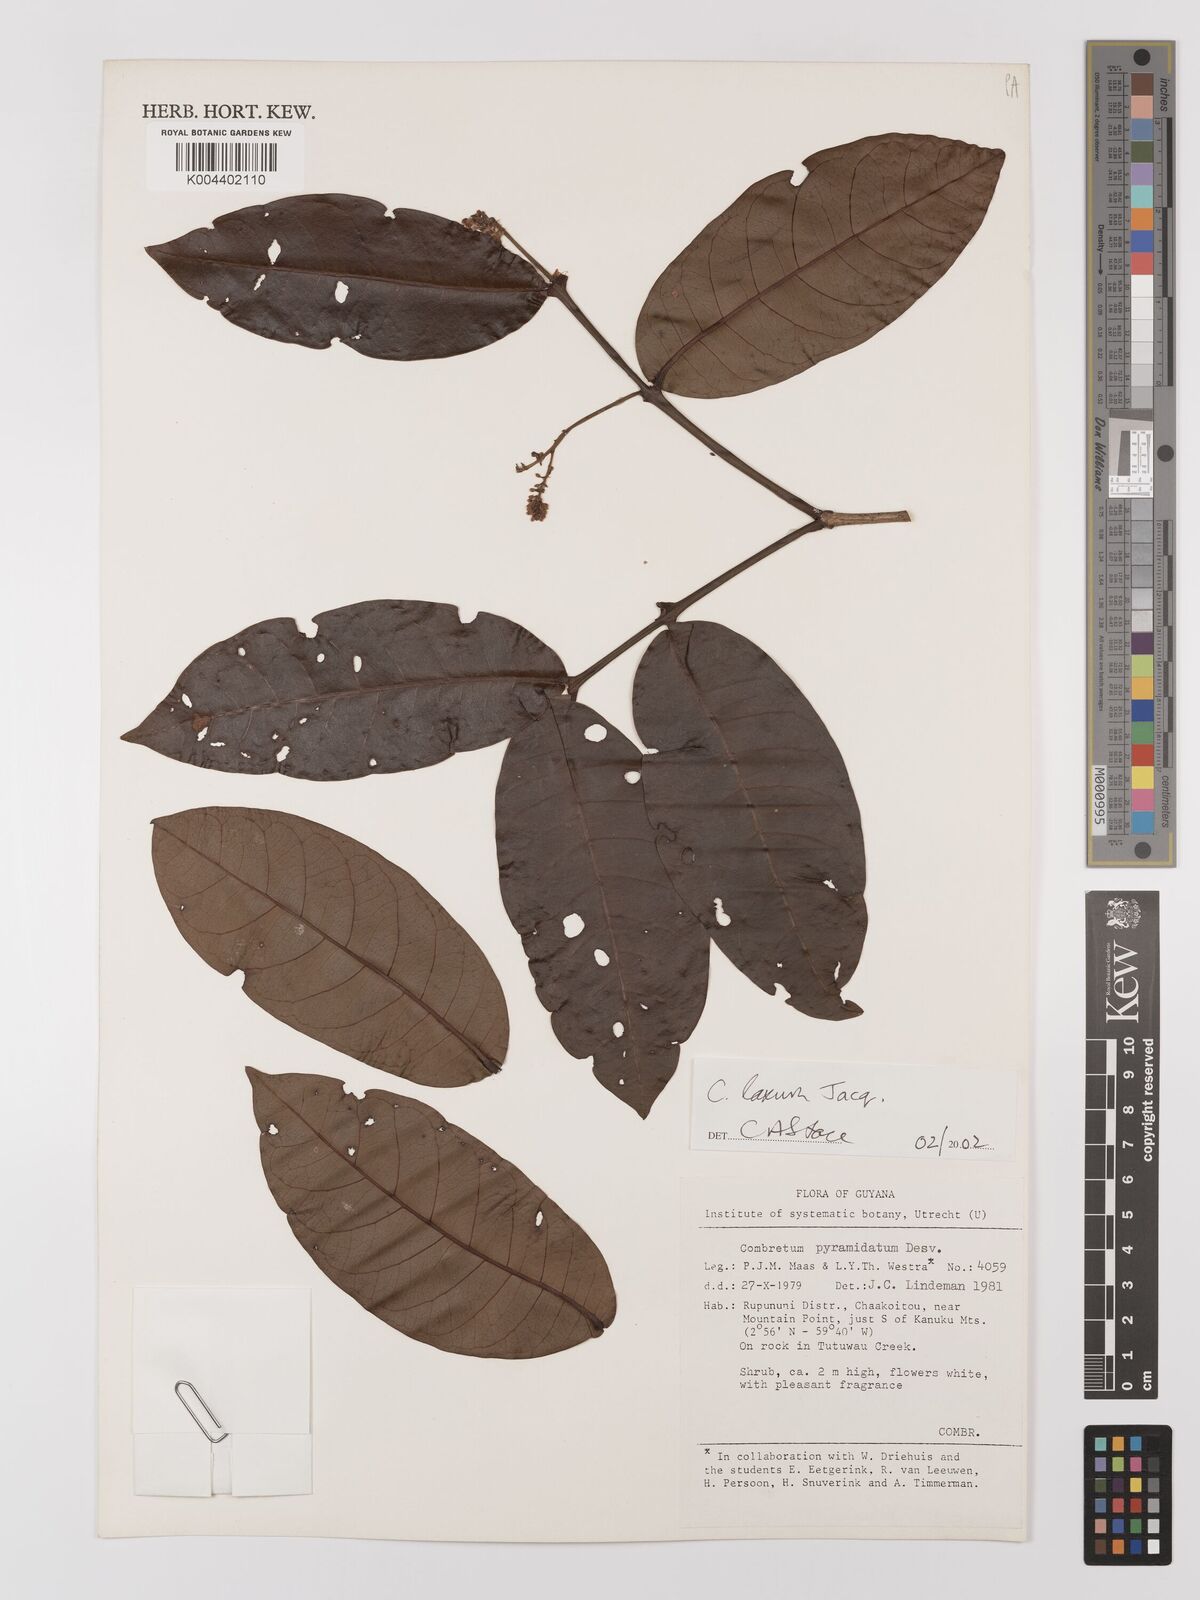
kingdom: Plantae
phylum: Tracheophyta
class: Magnoliopsida
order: Myrtales
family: Combretaceae
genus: Combretum
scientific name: Combretum
